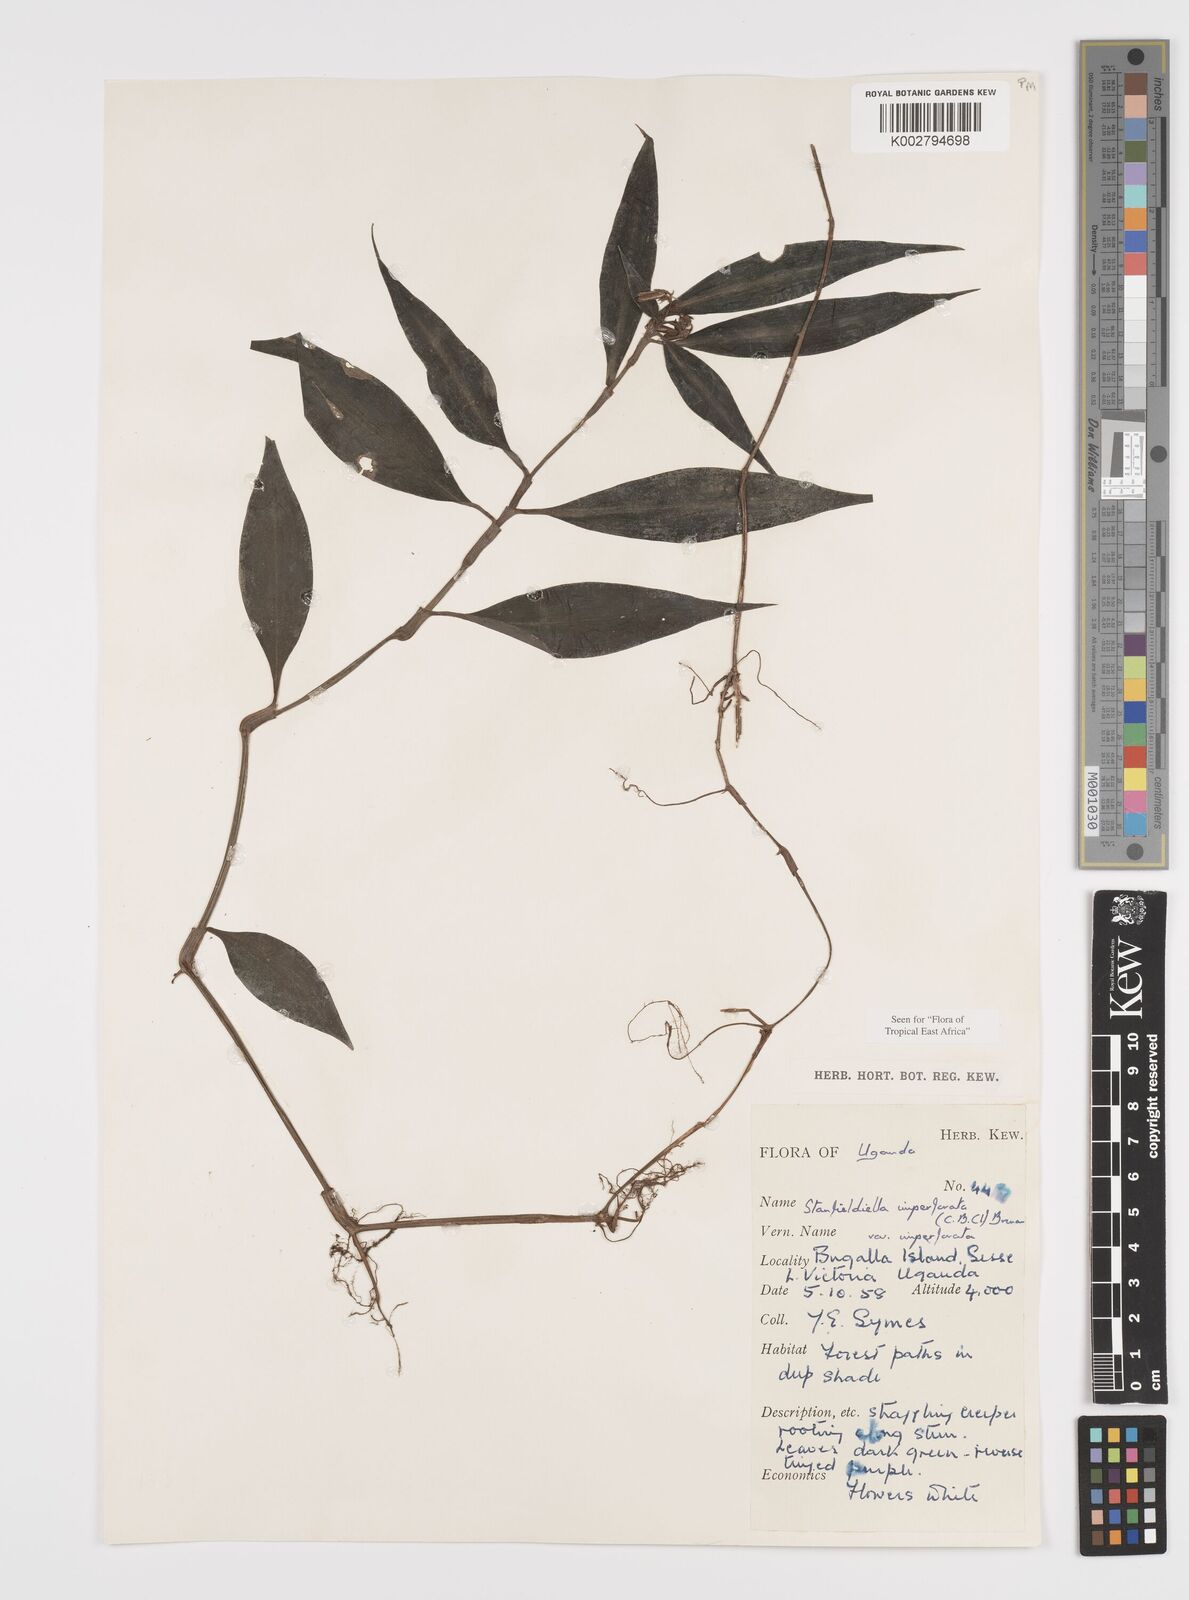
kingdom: Plantae
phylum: Tracheophyta
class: Liliopsida
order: Commelinales
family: Commelinaceae
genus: Stanfieldiella
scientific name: Stanfieldiella imperforata
